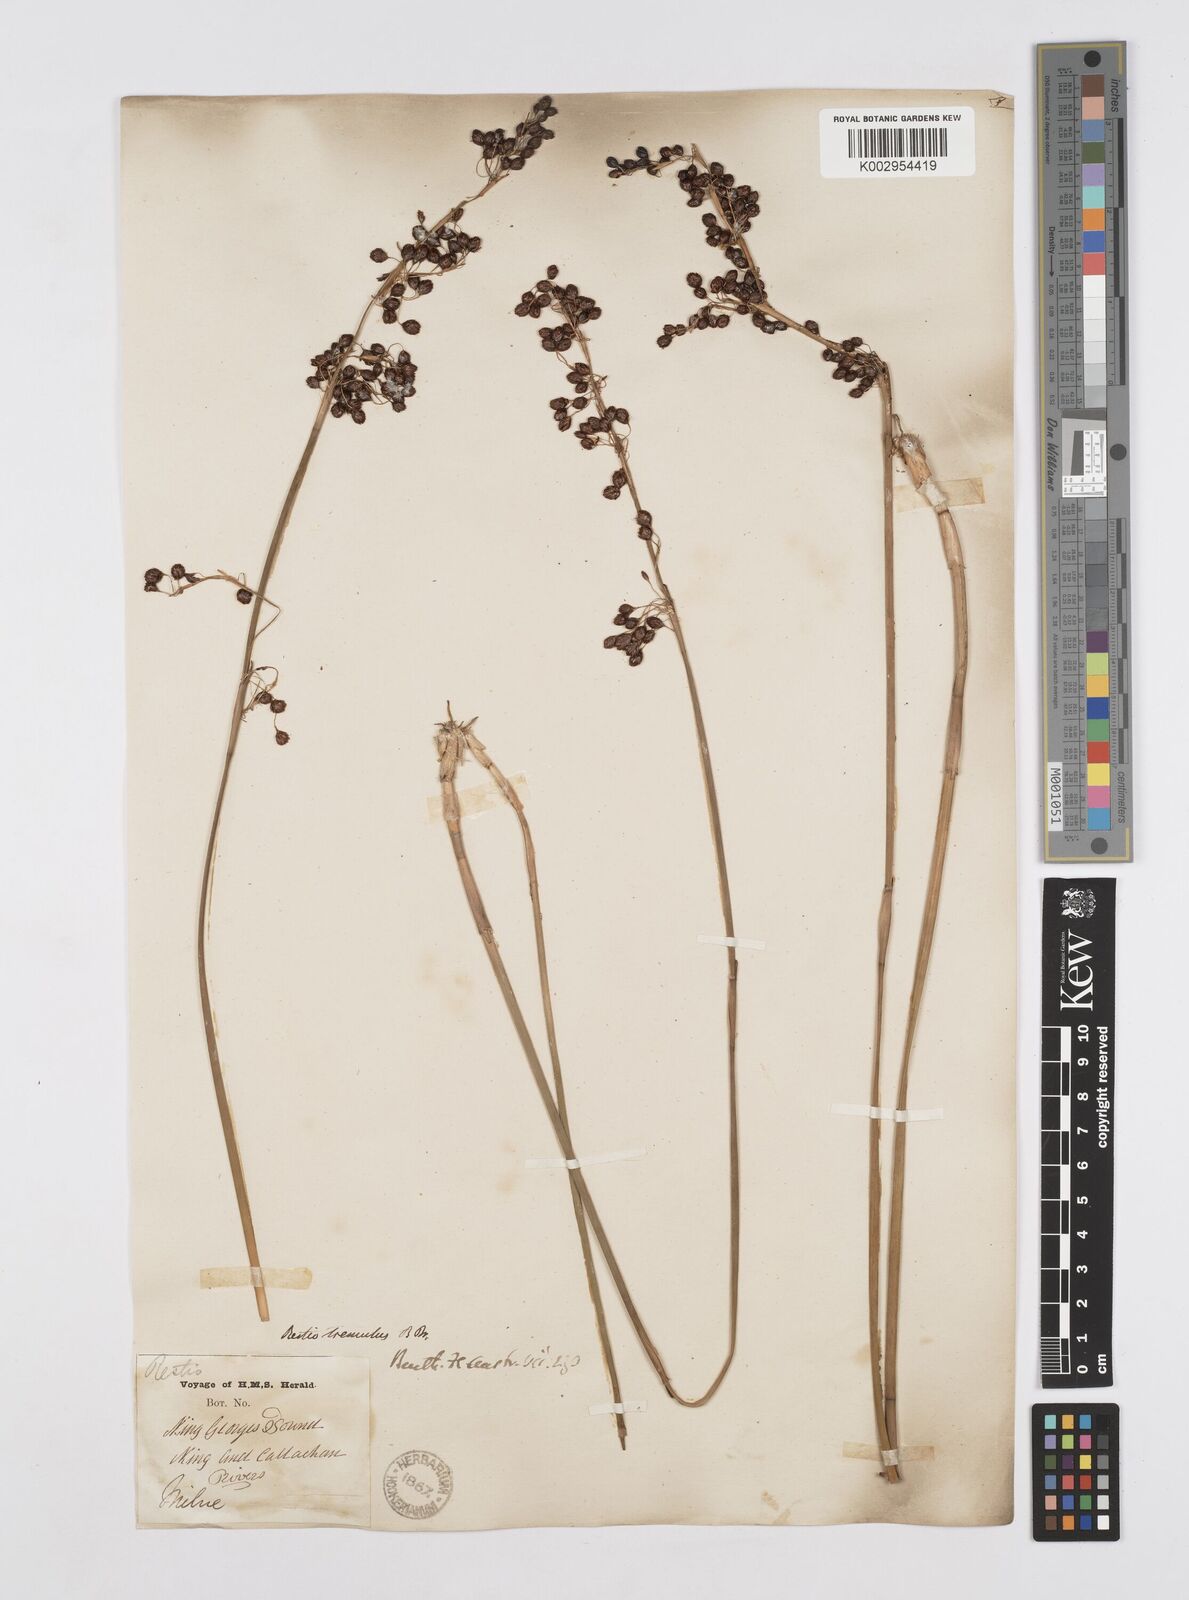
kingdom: Plantae
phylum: Tracheophyta
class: Liliopsida
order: Poales
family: Restionaceae
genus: Tremulina
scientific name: Tremulina tremula
